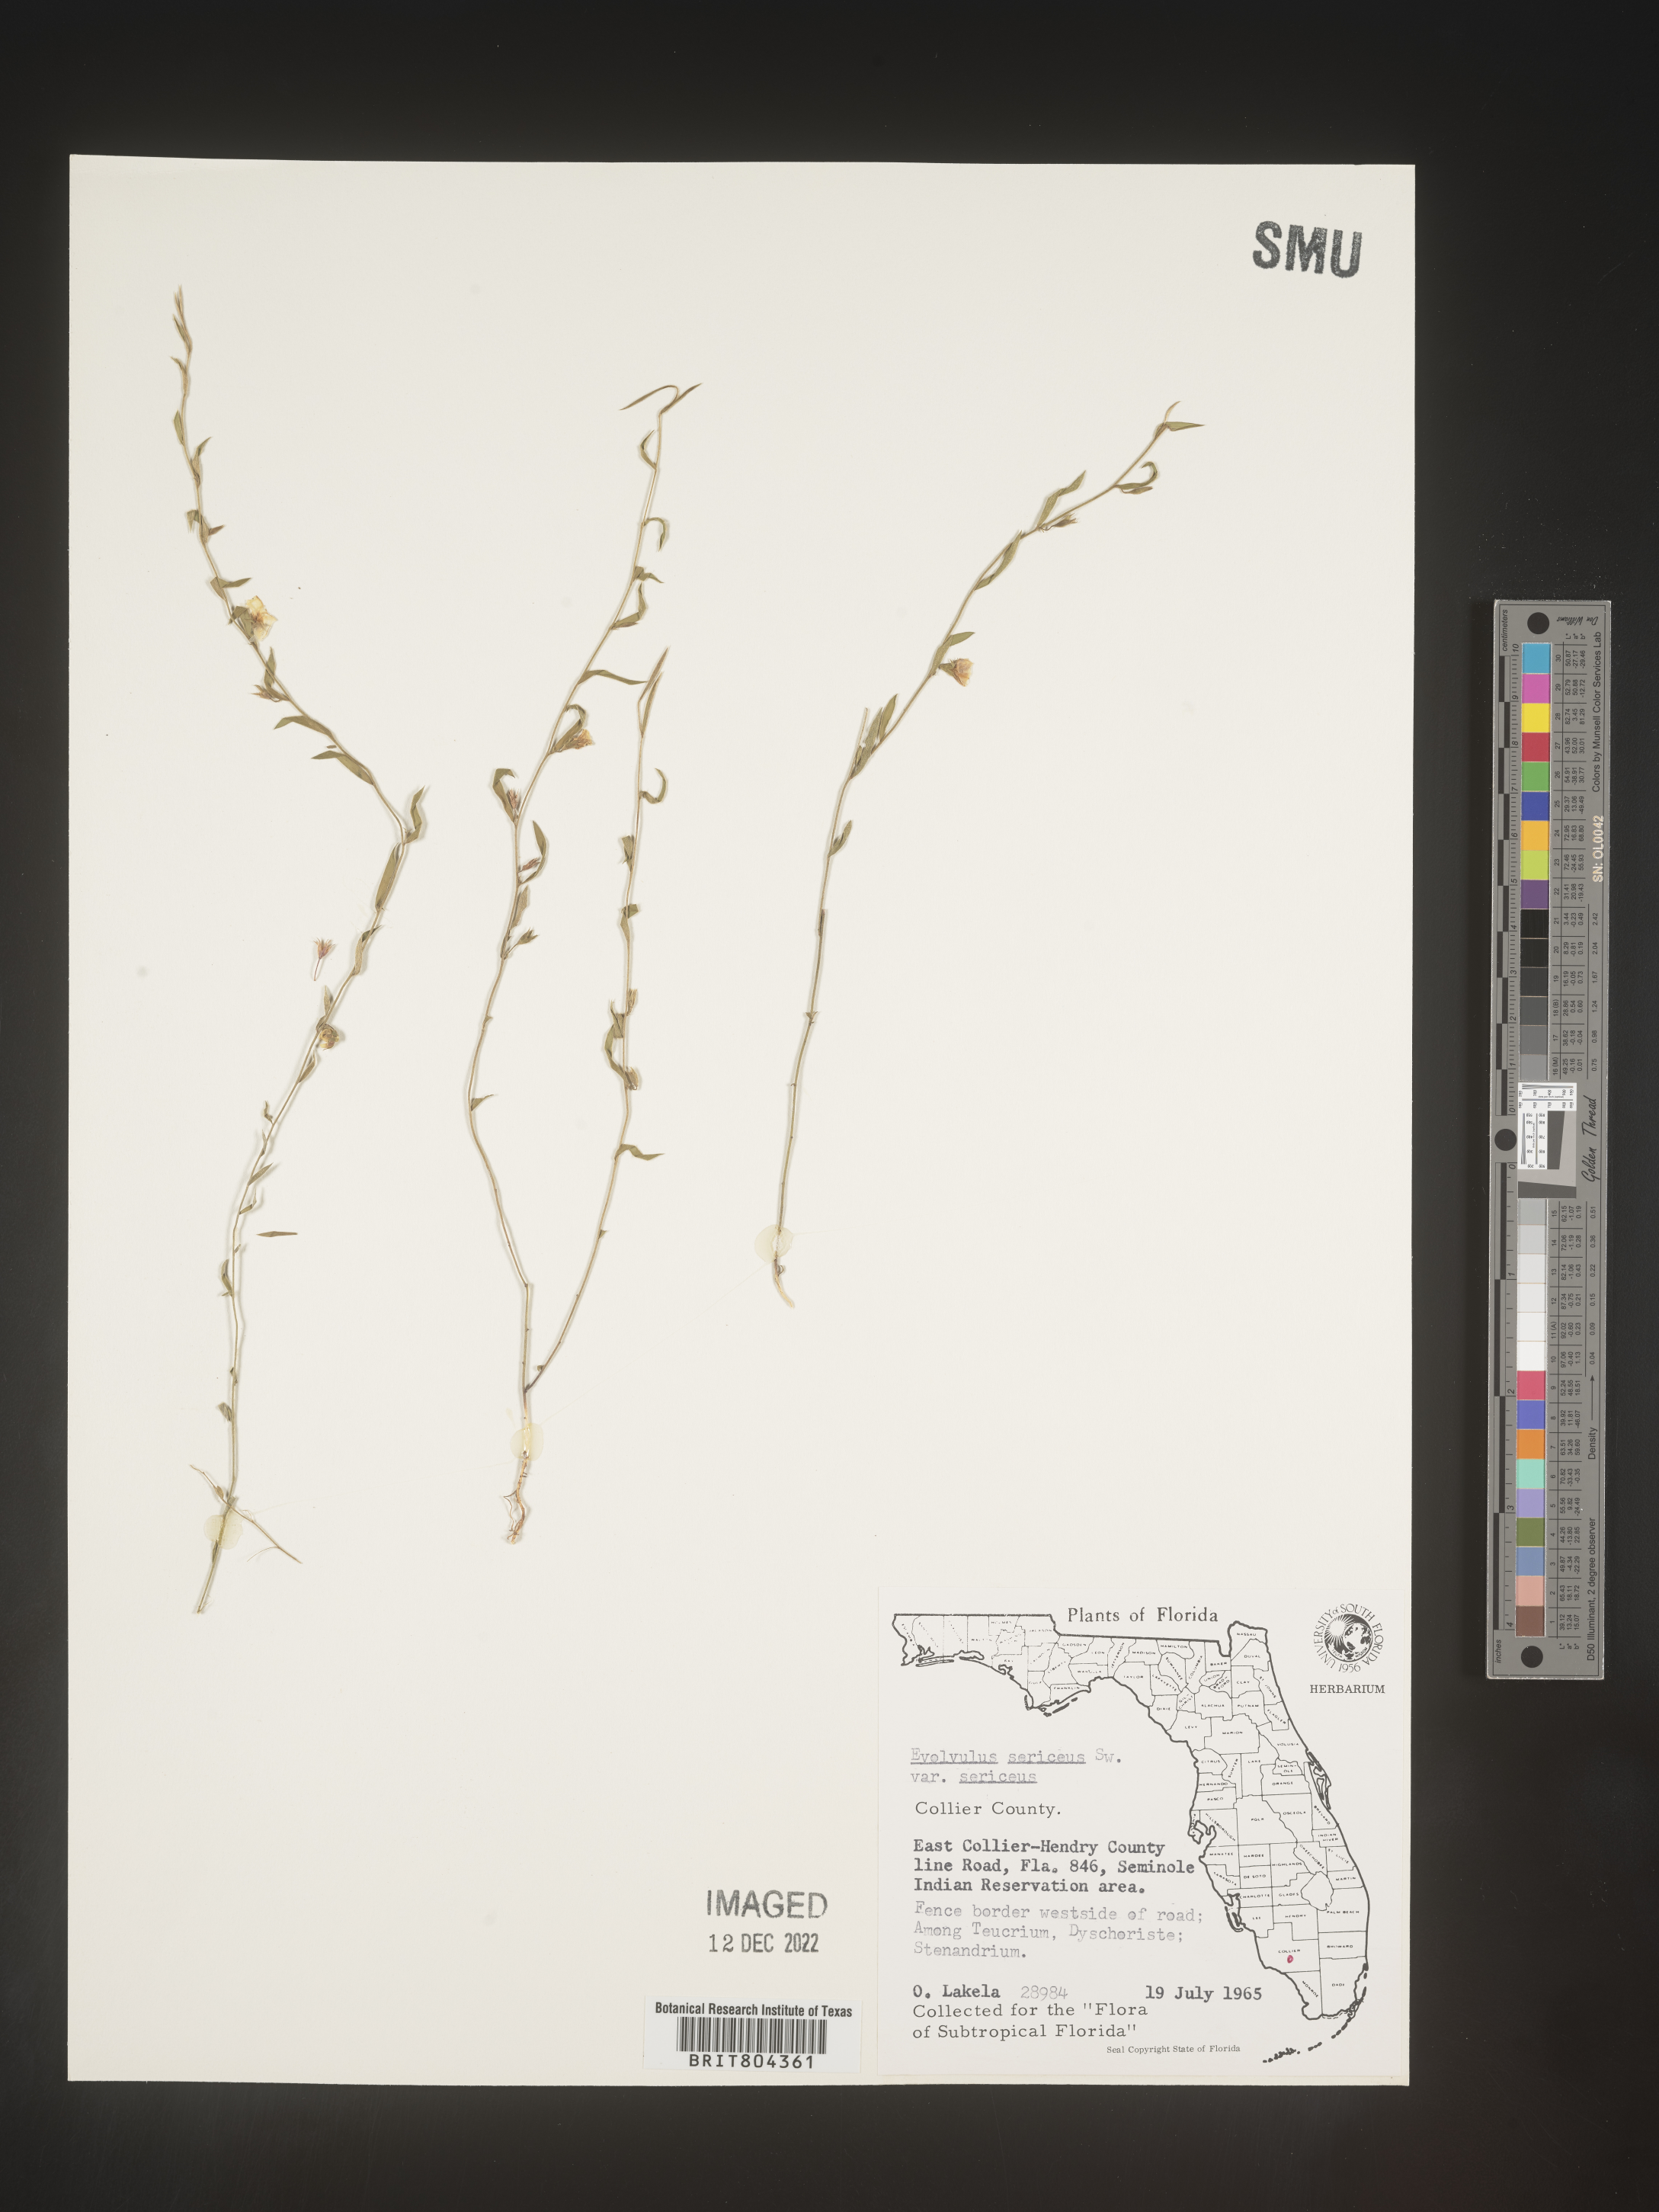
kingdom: Plantae
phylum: Tracheophyta
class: Magnoliopsida
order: Solanales
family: Convolvulaceae
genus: Evolvulus
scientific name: Evolvulus sericeus
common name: Blue dots
